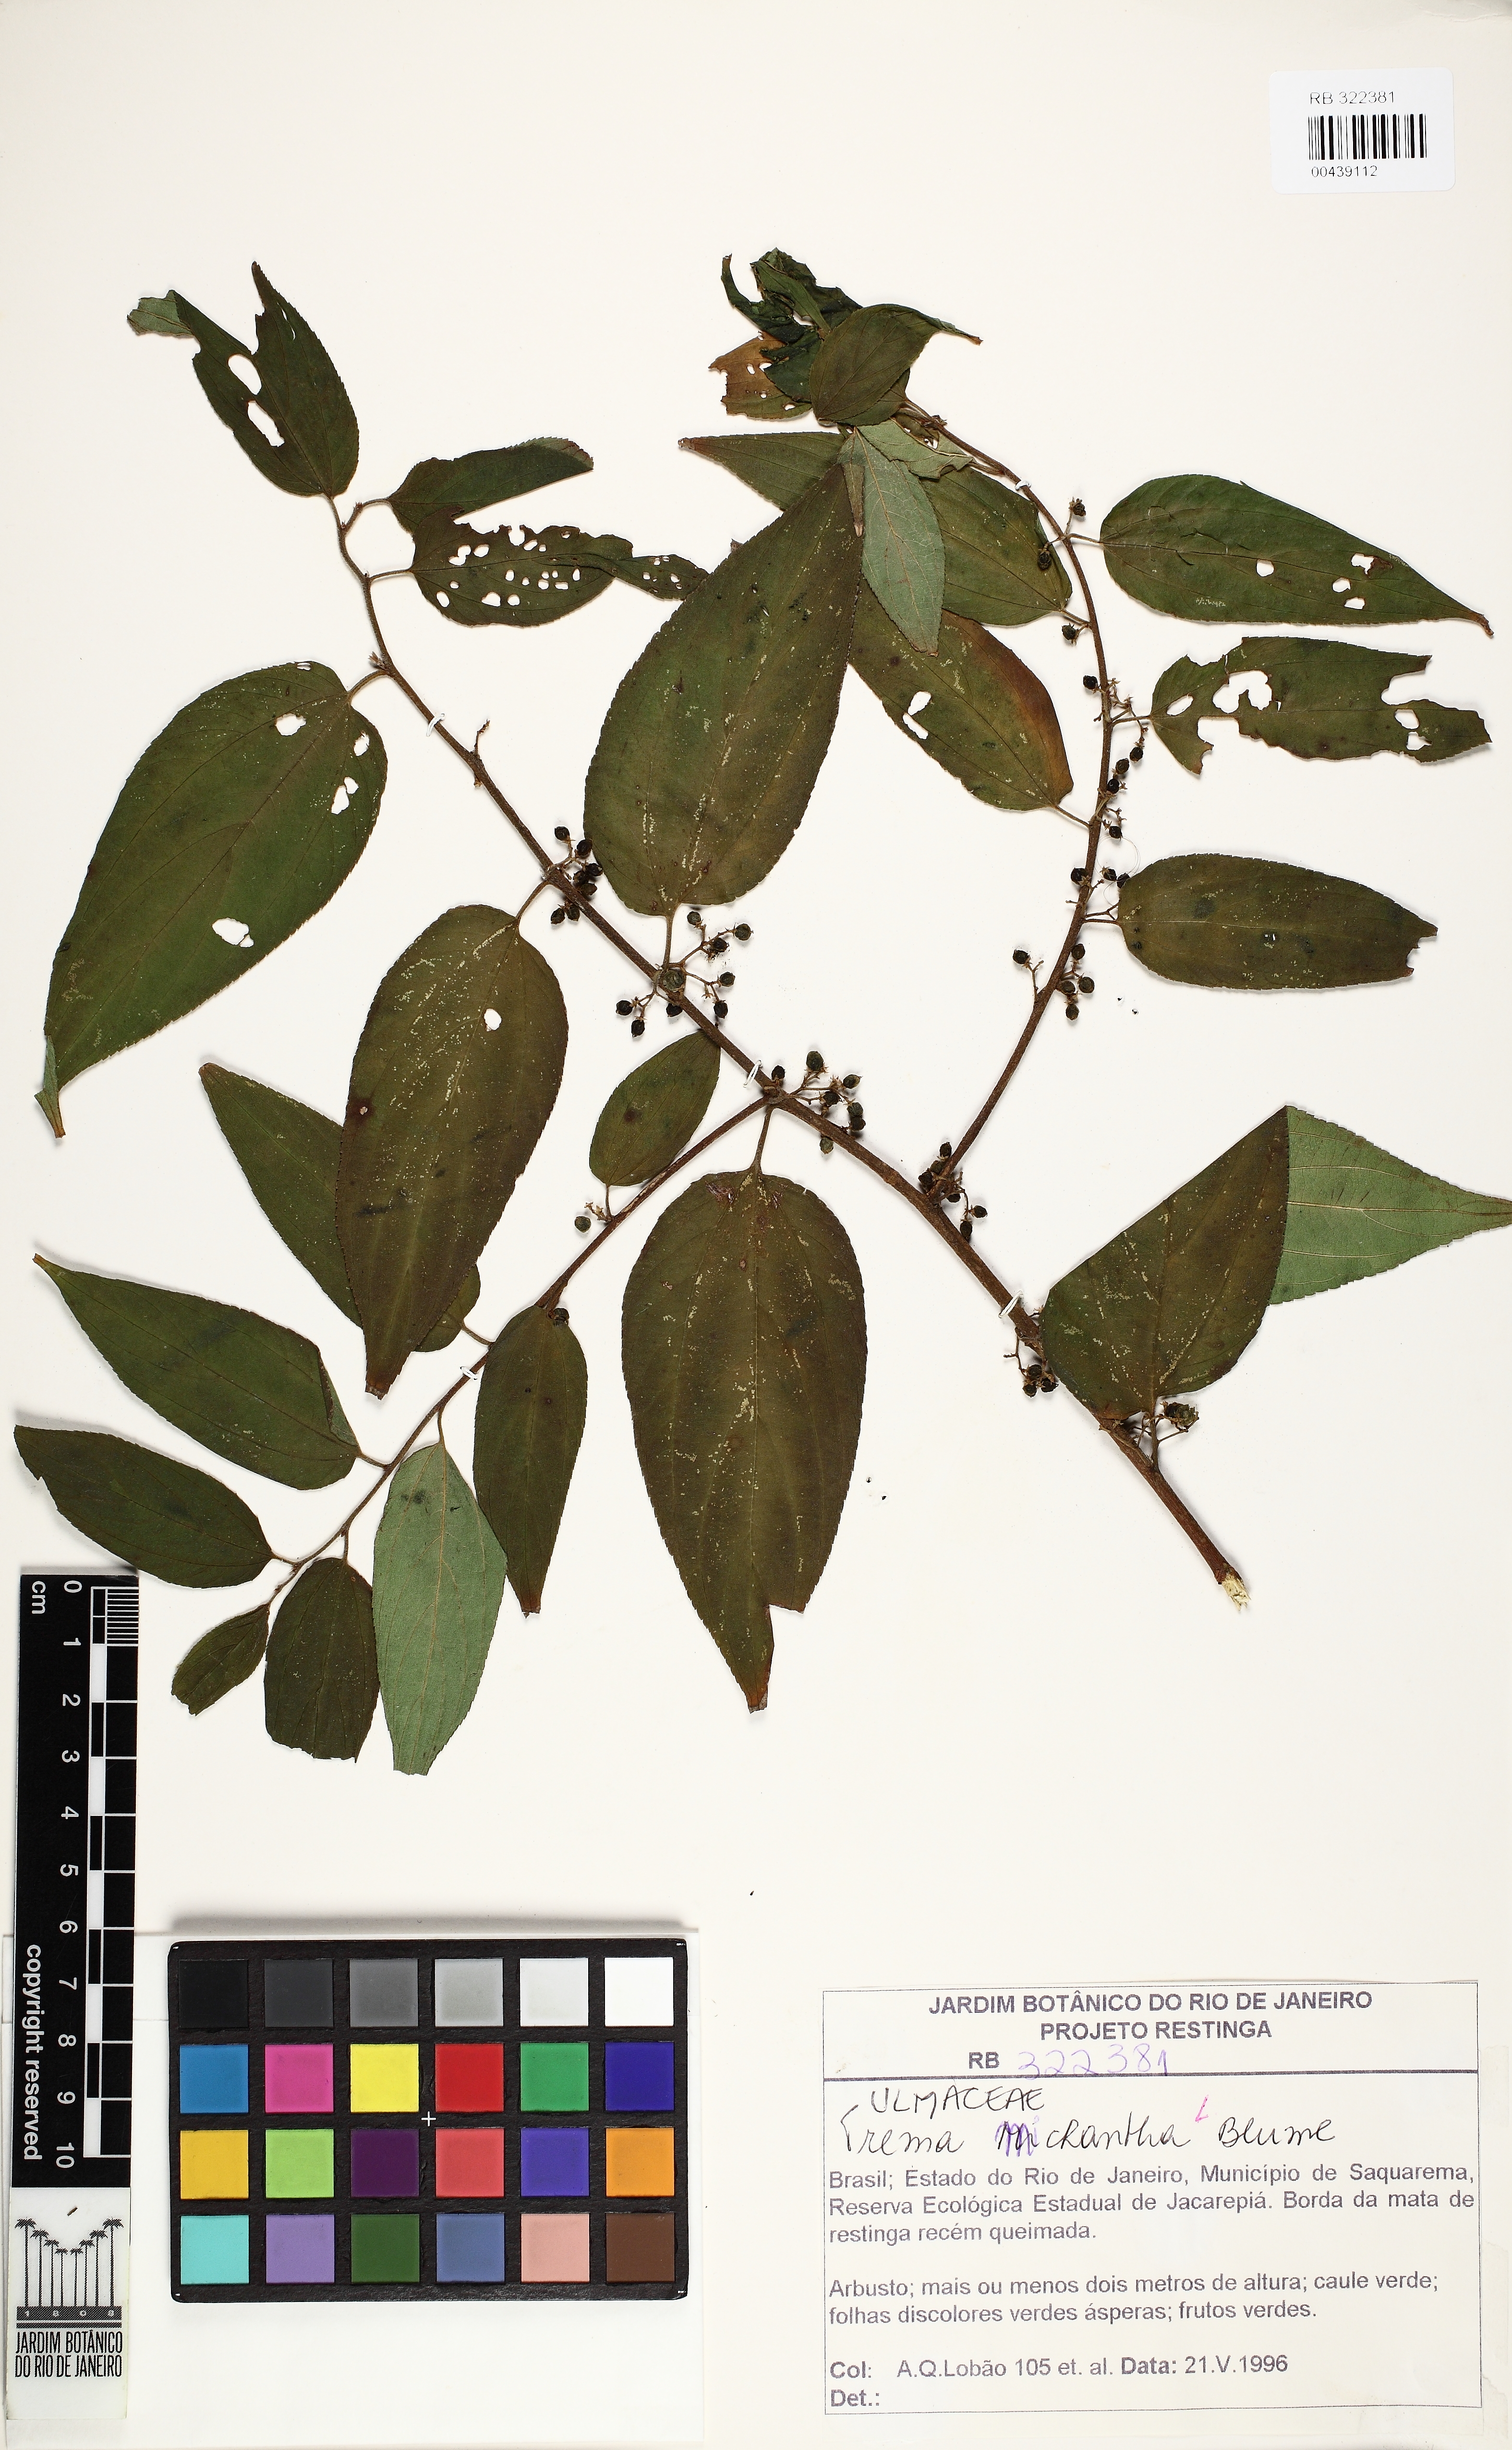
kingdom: Plantae
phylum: Tracheophyta
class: Magnoliopsida
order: Rosales
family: Cannabaceae
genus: Trema
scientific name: Trema micranthum
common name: Jamaican nettletree
